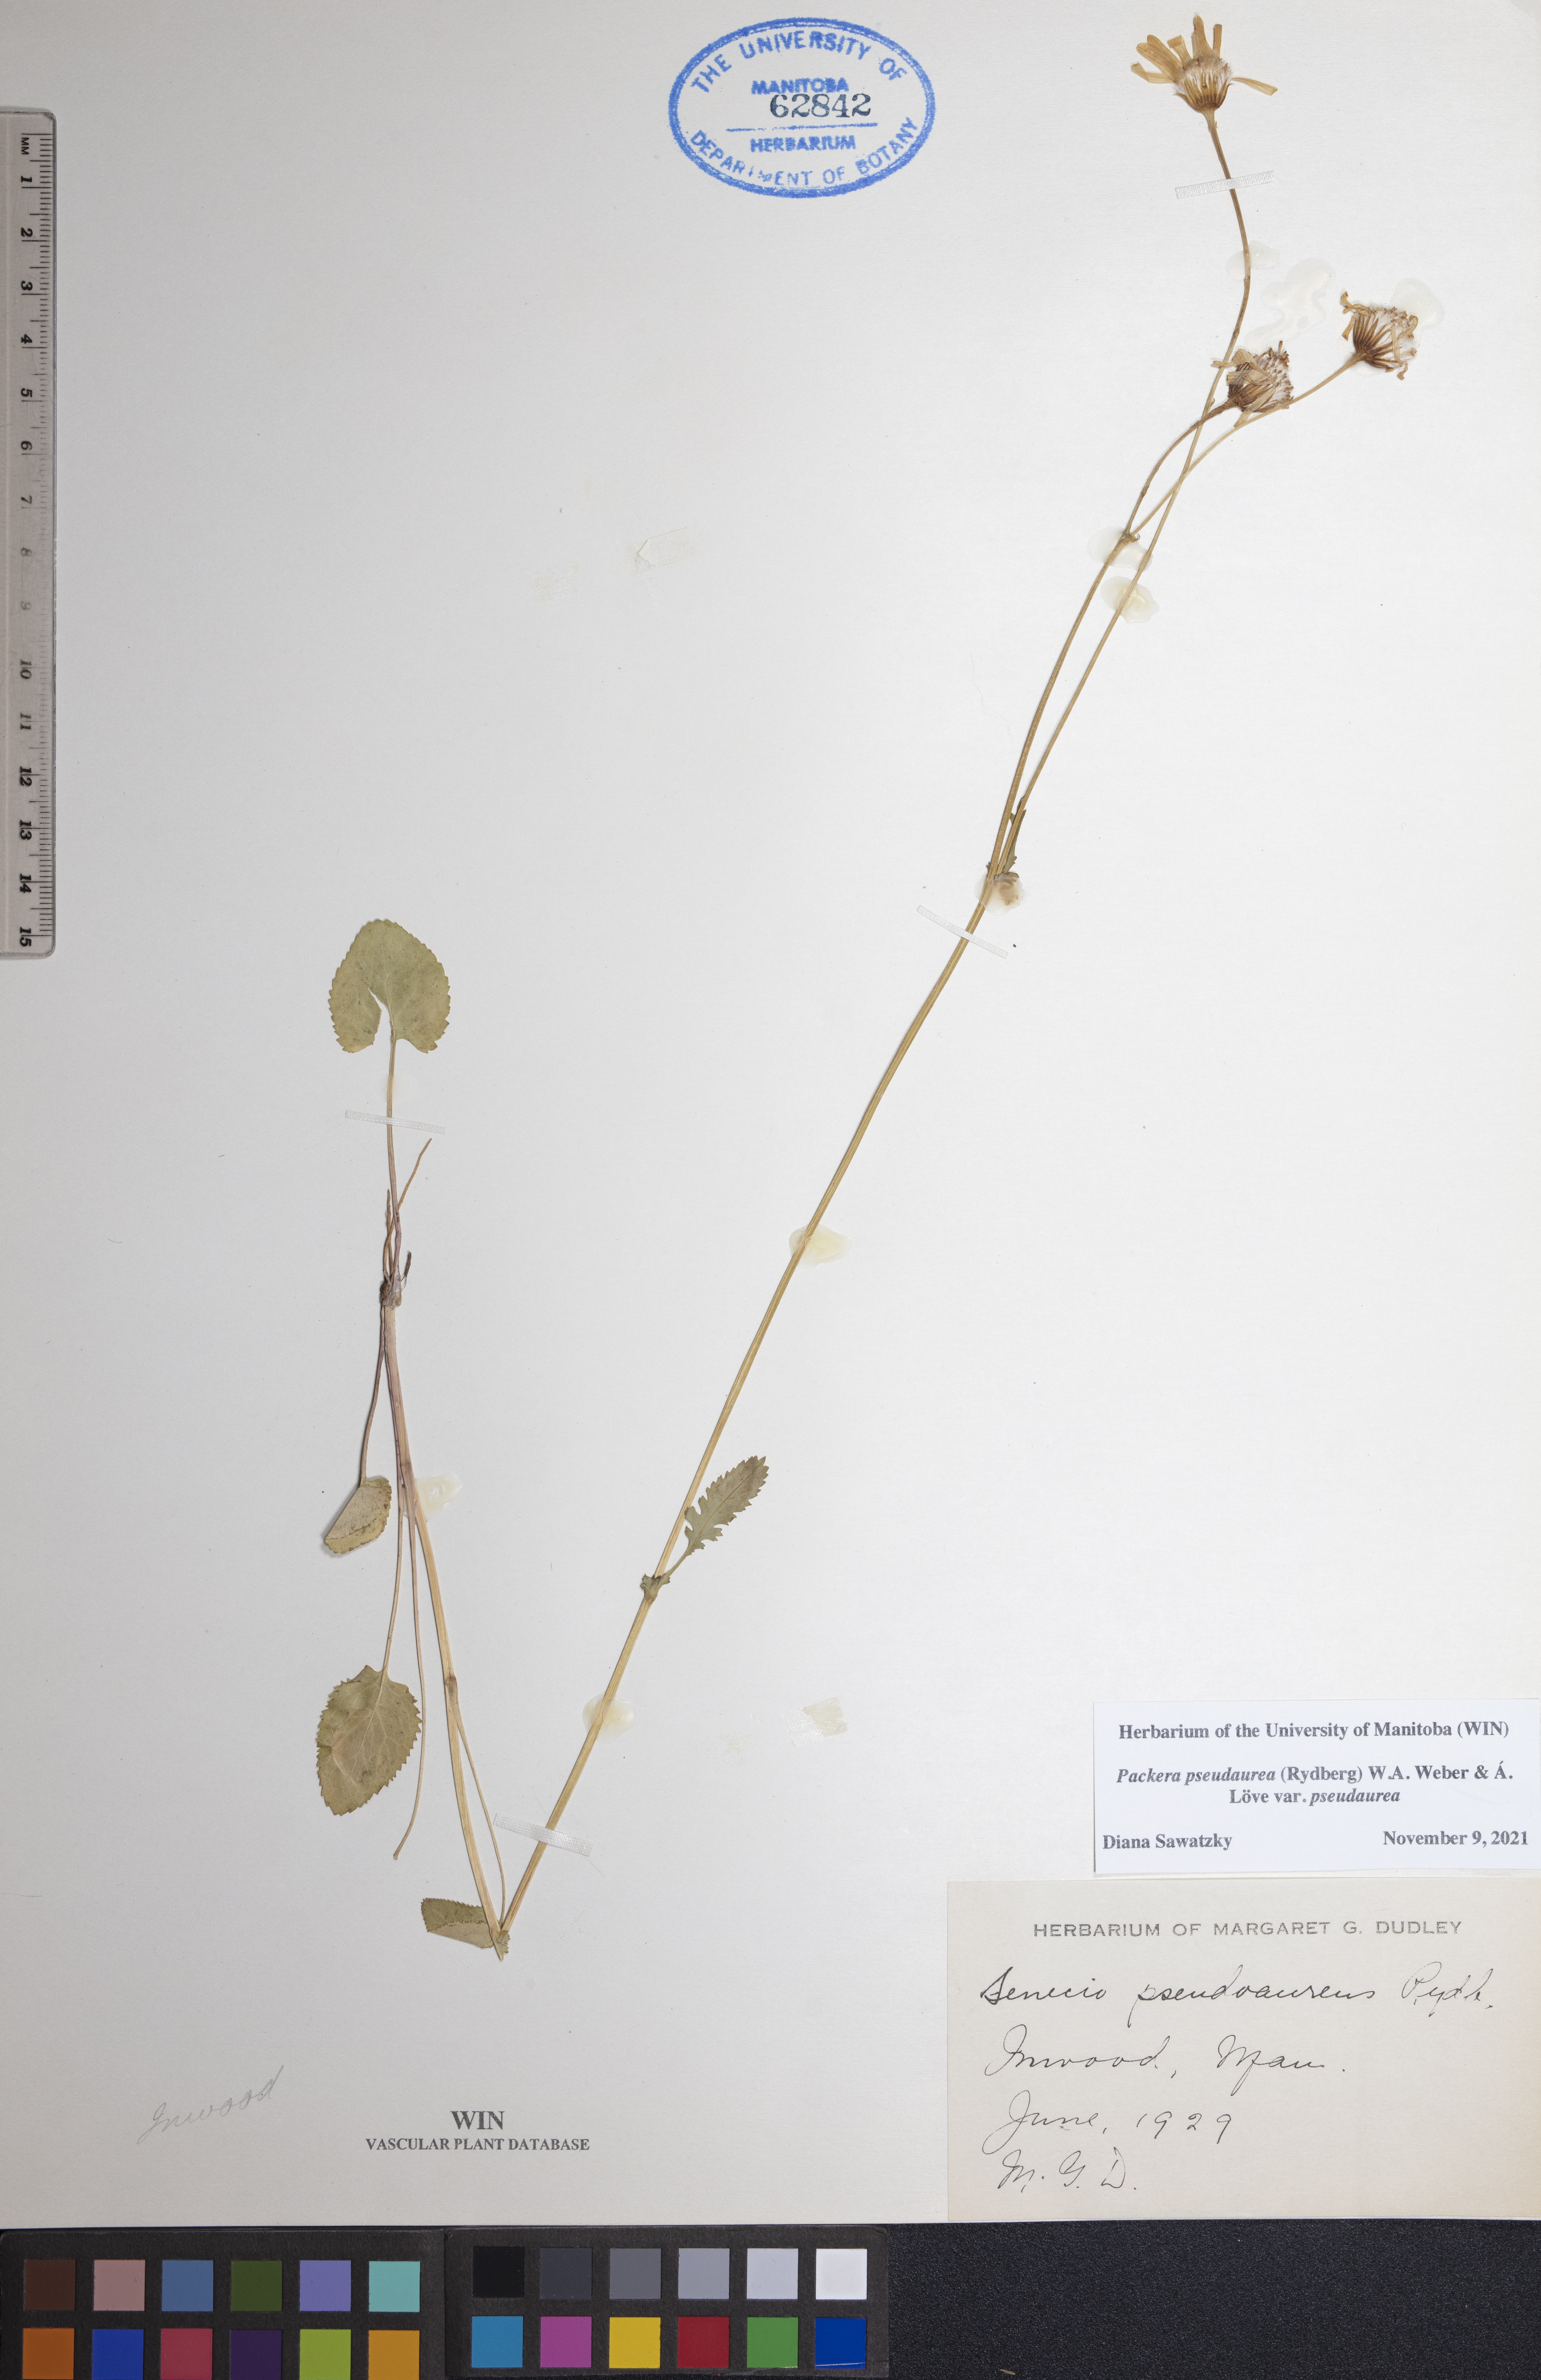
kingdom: Plantae
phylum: Tracheophyta
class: Magnoliopsida
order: Asterales
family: Asteraceae
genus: Packera
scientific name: Packera pseudaurea
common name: False-gold groundsel
